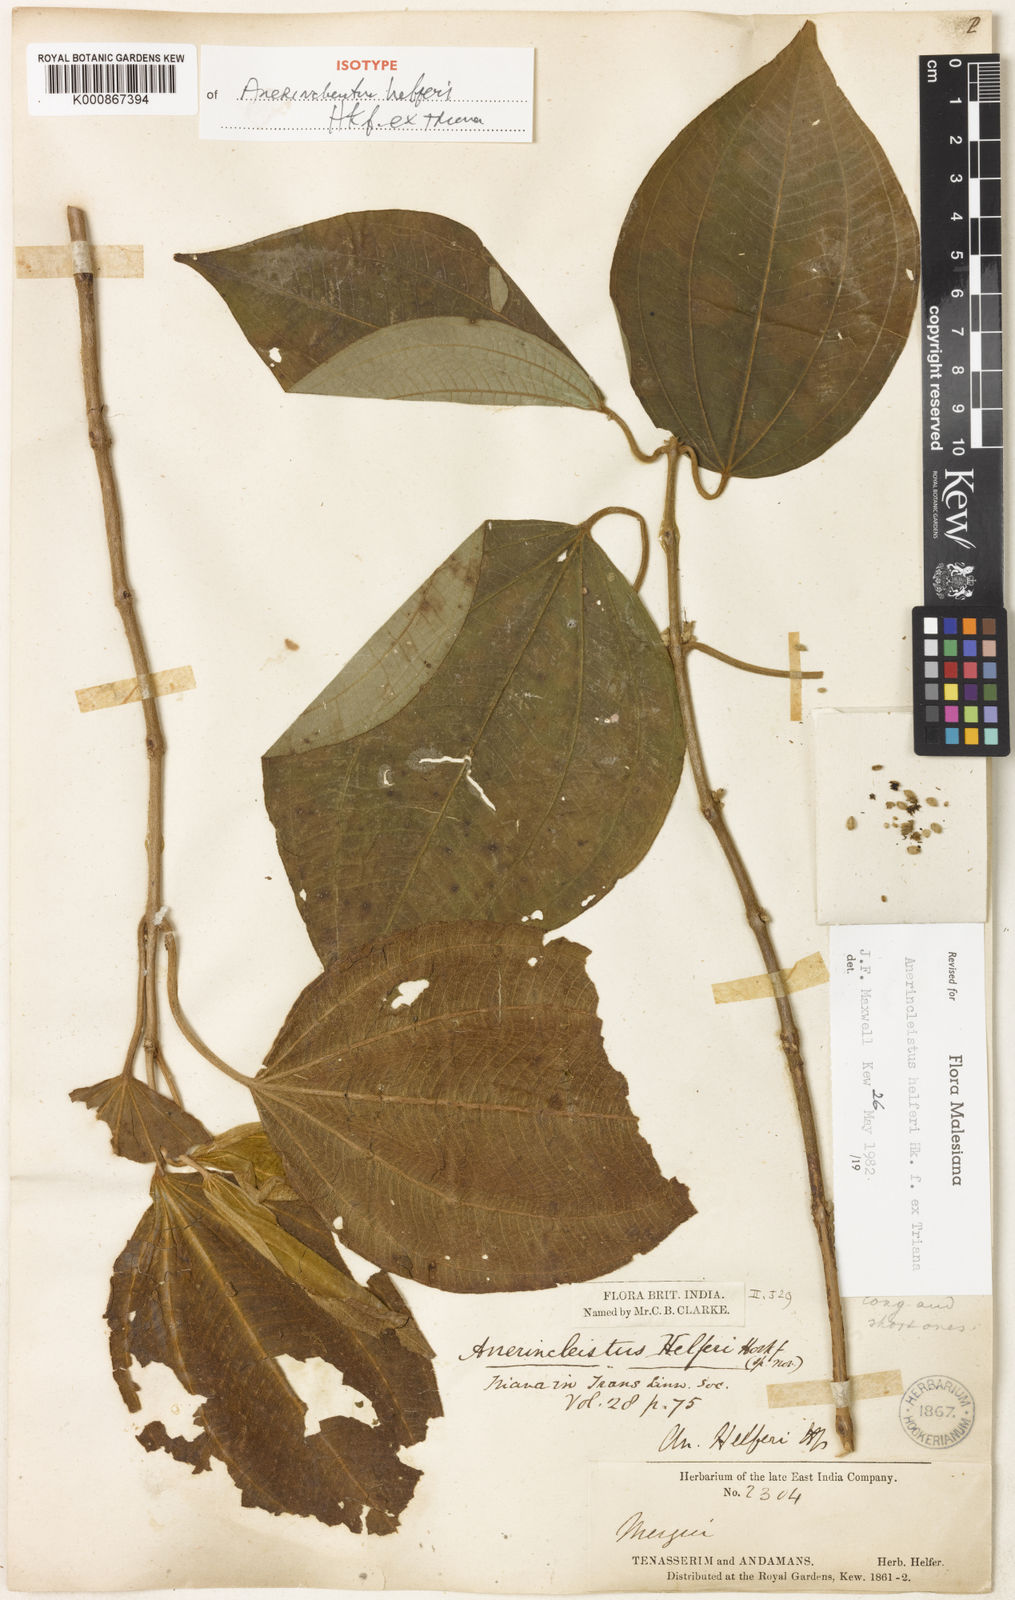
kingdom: Plantae
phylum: Tracheophyta
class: Magnoliopsida
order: Myrtales
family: Melastomataceae
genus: Anerincleistus
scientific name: Anerincleistus griffithii
